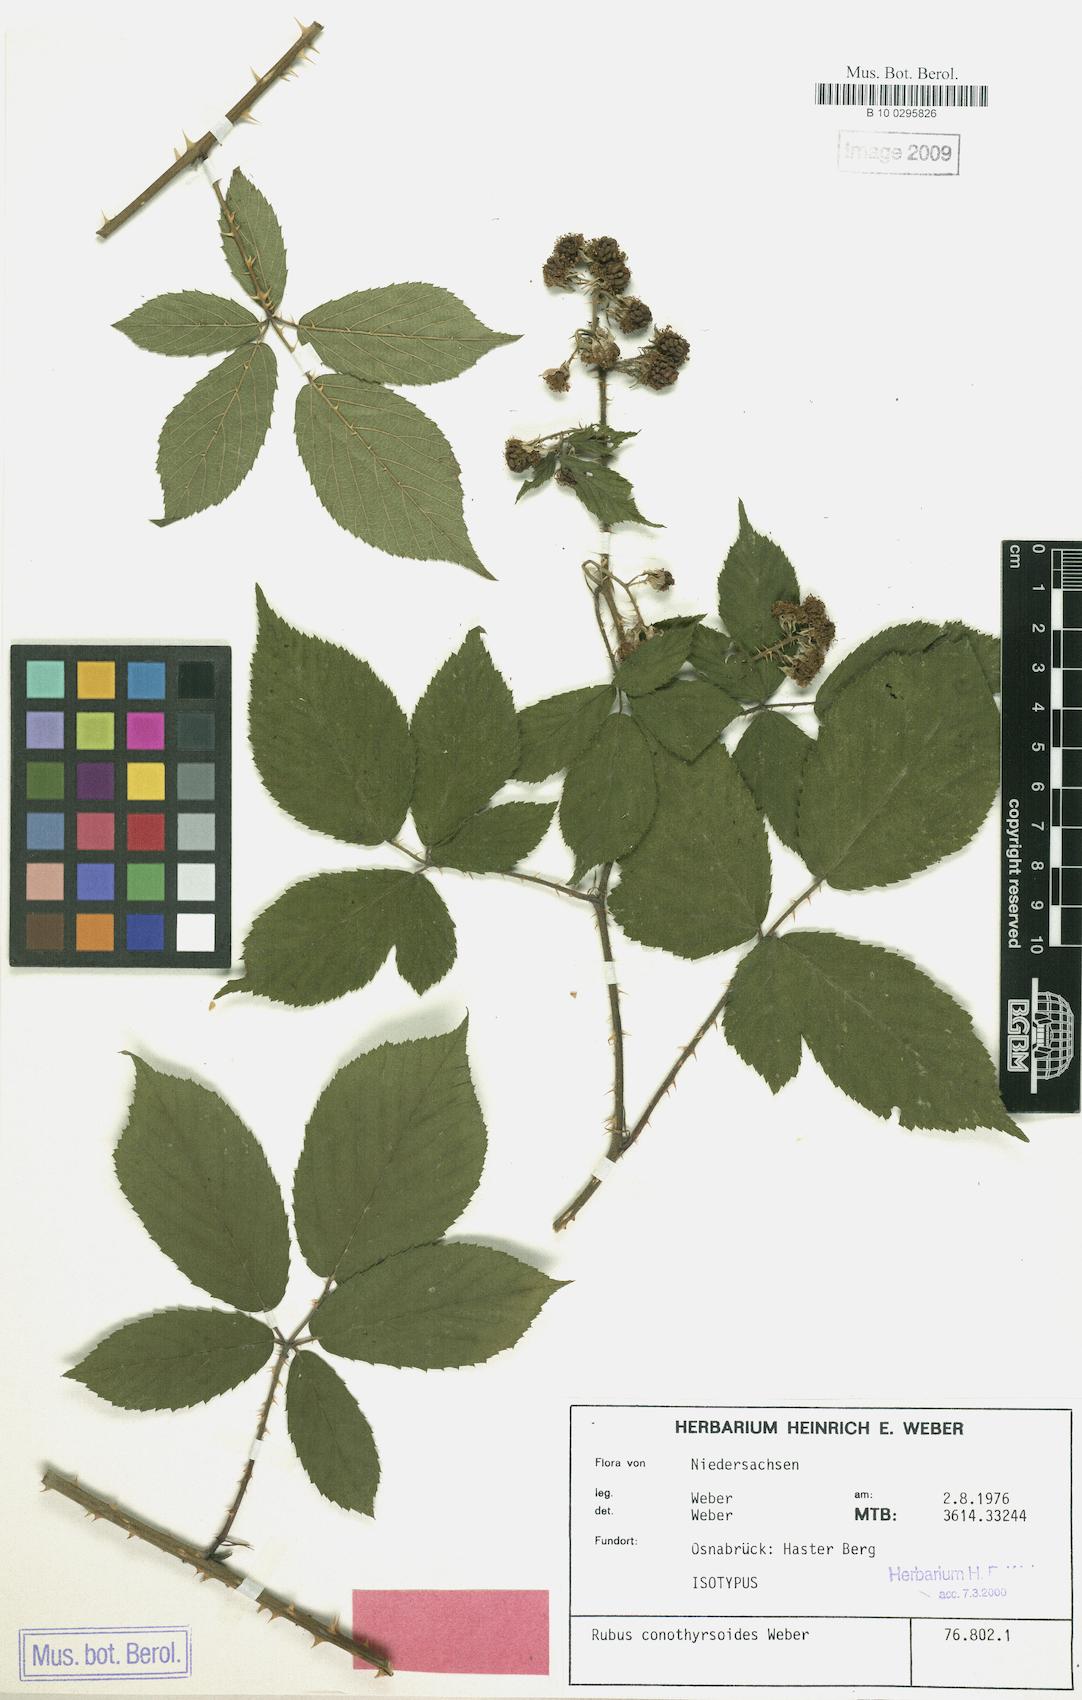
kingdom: Plantae
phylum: Tracheophyta
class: Magnoliopsida
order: Rosales
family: Rosaceae
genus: Rubus
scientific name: Rubus conothyrsoides
